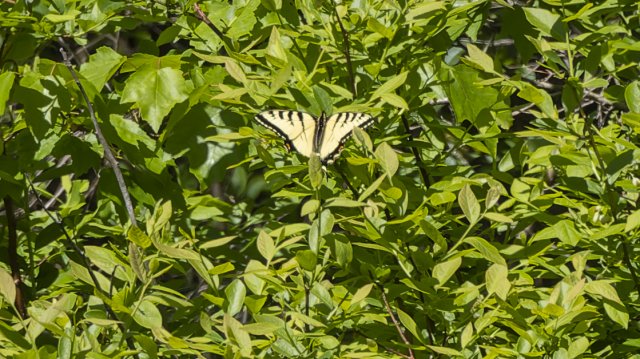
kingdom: Animalia
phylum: Arthropoda
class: Insecta
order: Lepidoptera
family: Papilionidae
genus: Pterourus
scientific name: Pterourus glaucus
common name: Eastern Tiger Swallowtail
